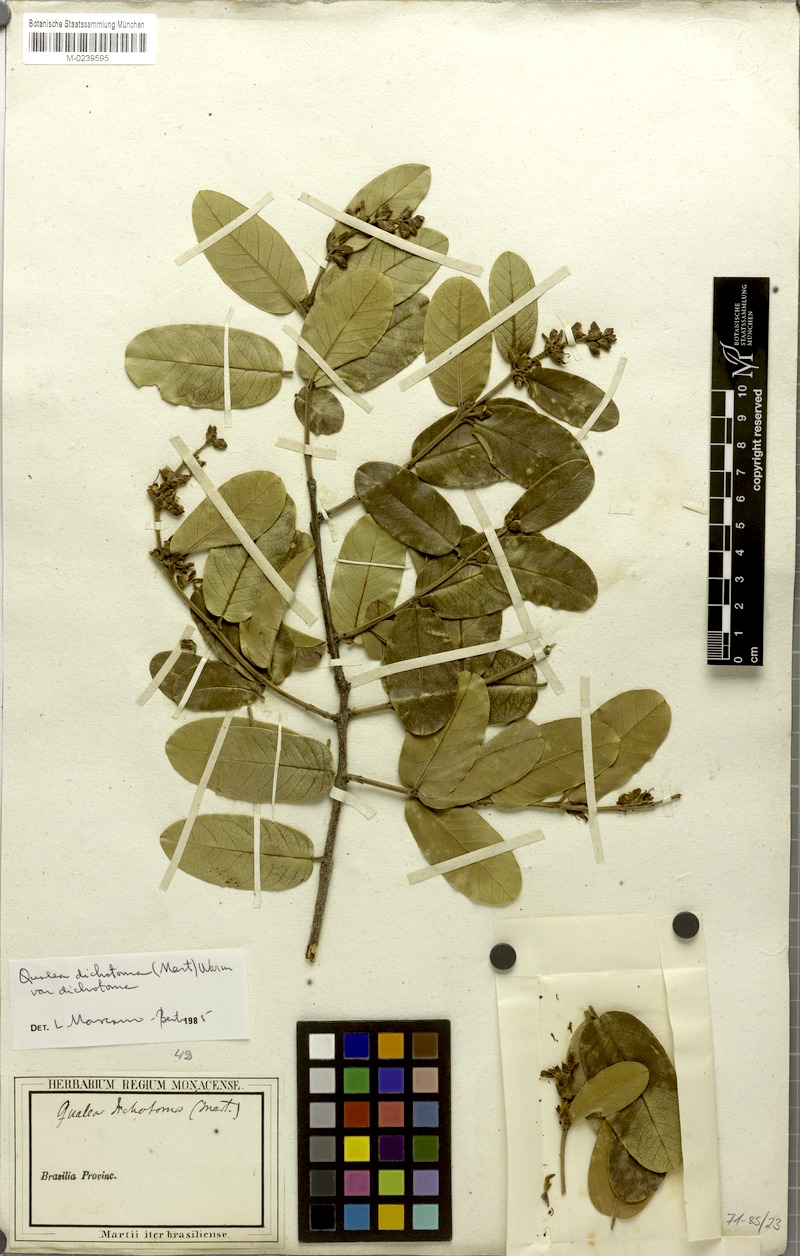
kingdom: Plantae
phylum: Tracheophyta
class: Magnoliopsida
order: Myrtales
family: Vochysiaceae
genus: Qualea
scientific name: Qualea cordata
